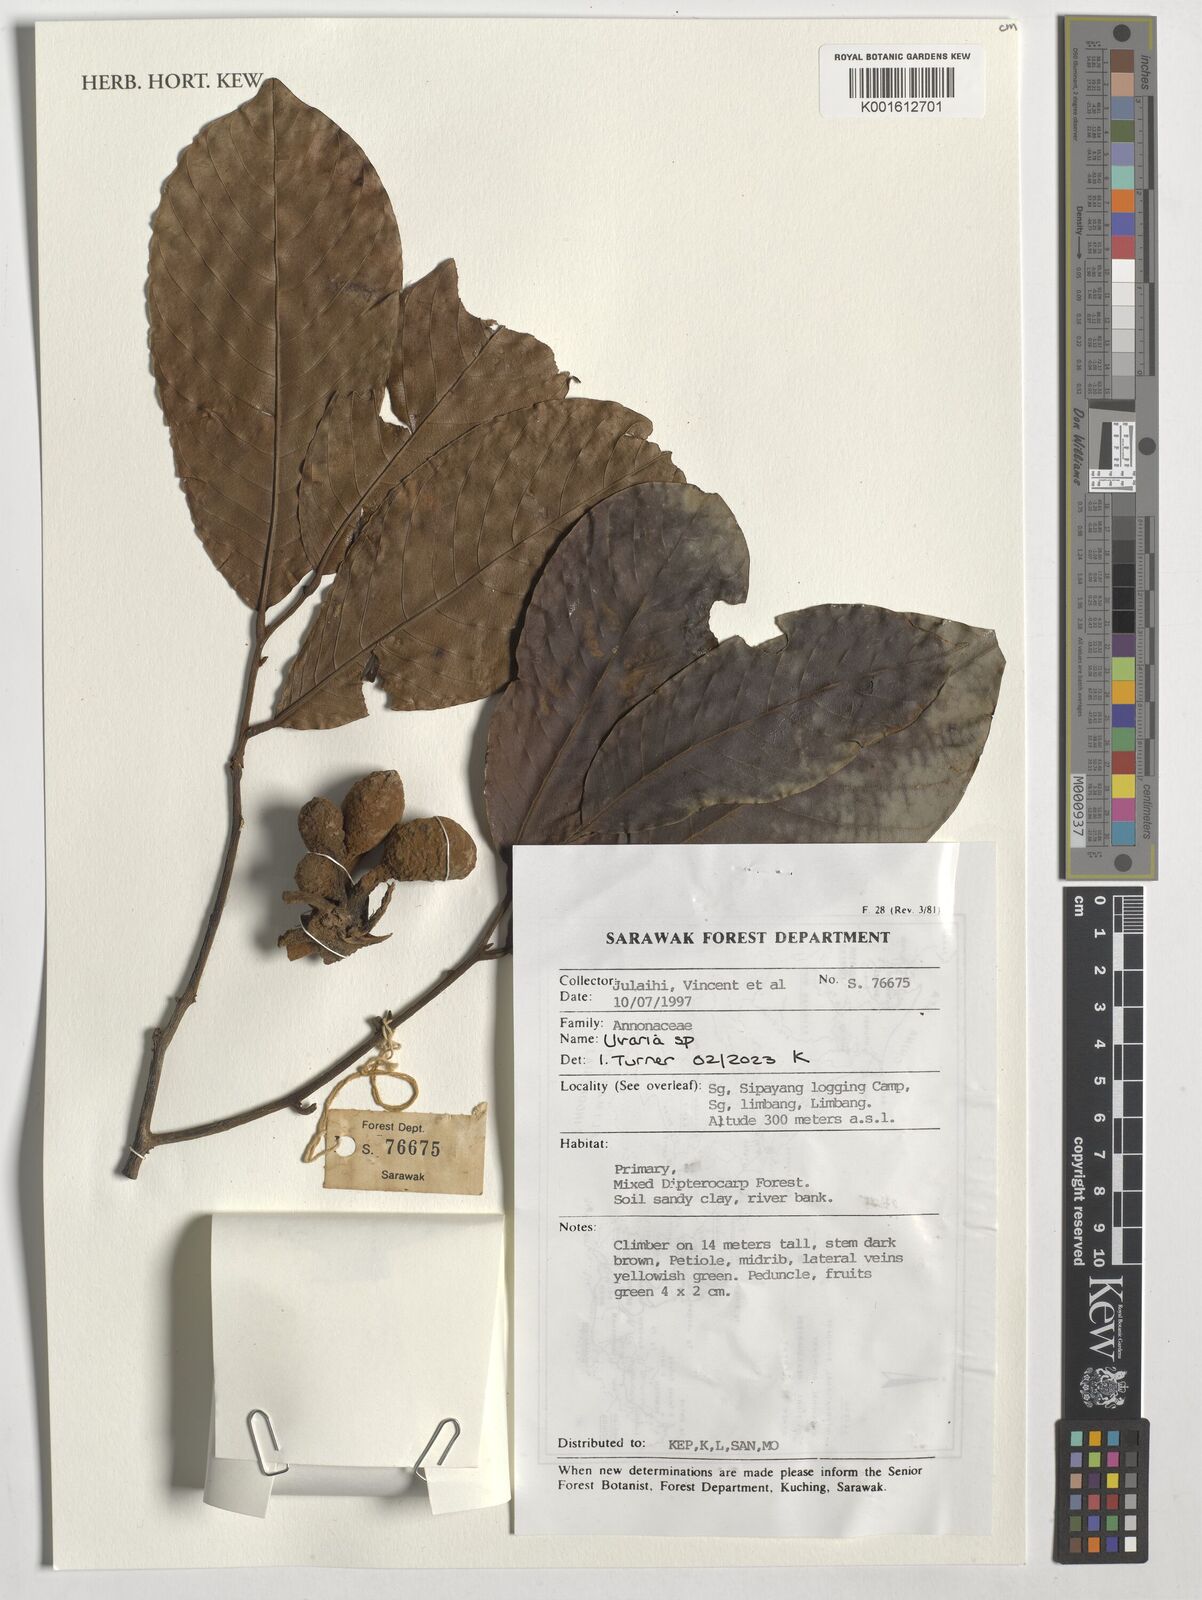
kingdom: Plantae
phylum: Tracheophyta
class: Magnoliopsida
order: Magnoliales
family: Annonaceae
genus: Uvaria
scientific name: Uvaria
